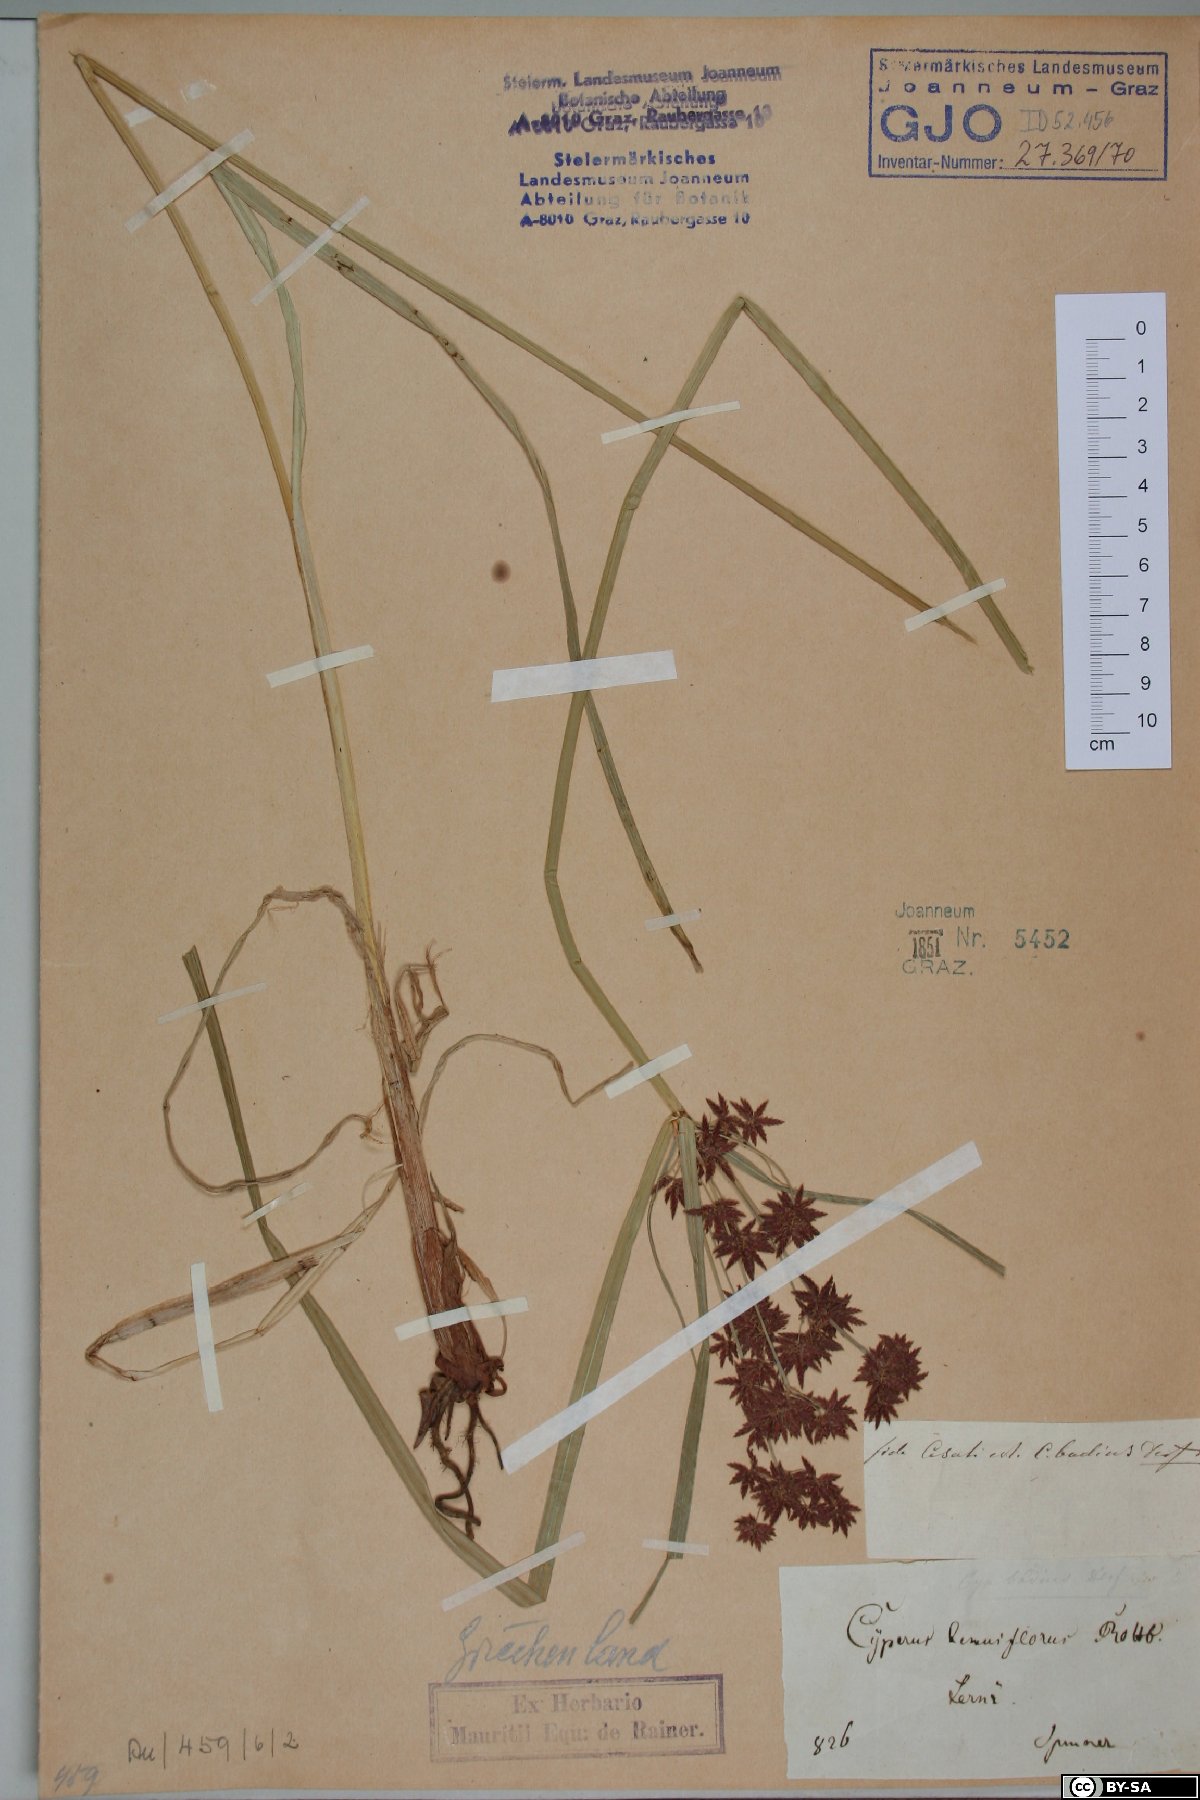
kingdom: Plantae
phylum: Tracheophyta
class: Liliopsida
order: Poales
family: Cyperaceae
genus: Cyperus
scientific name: Cyperus longus
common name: Galingale
